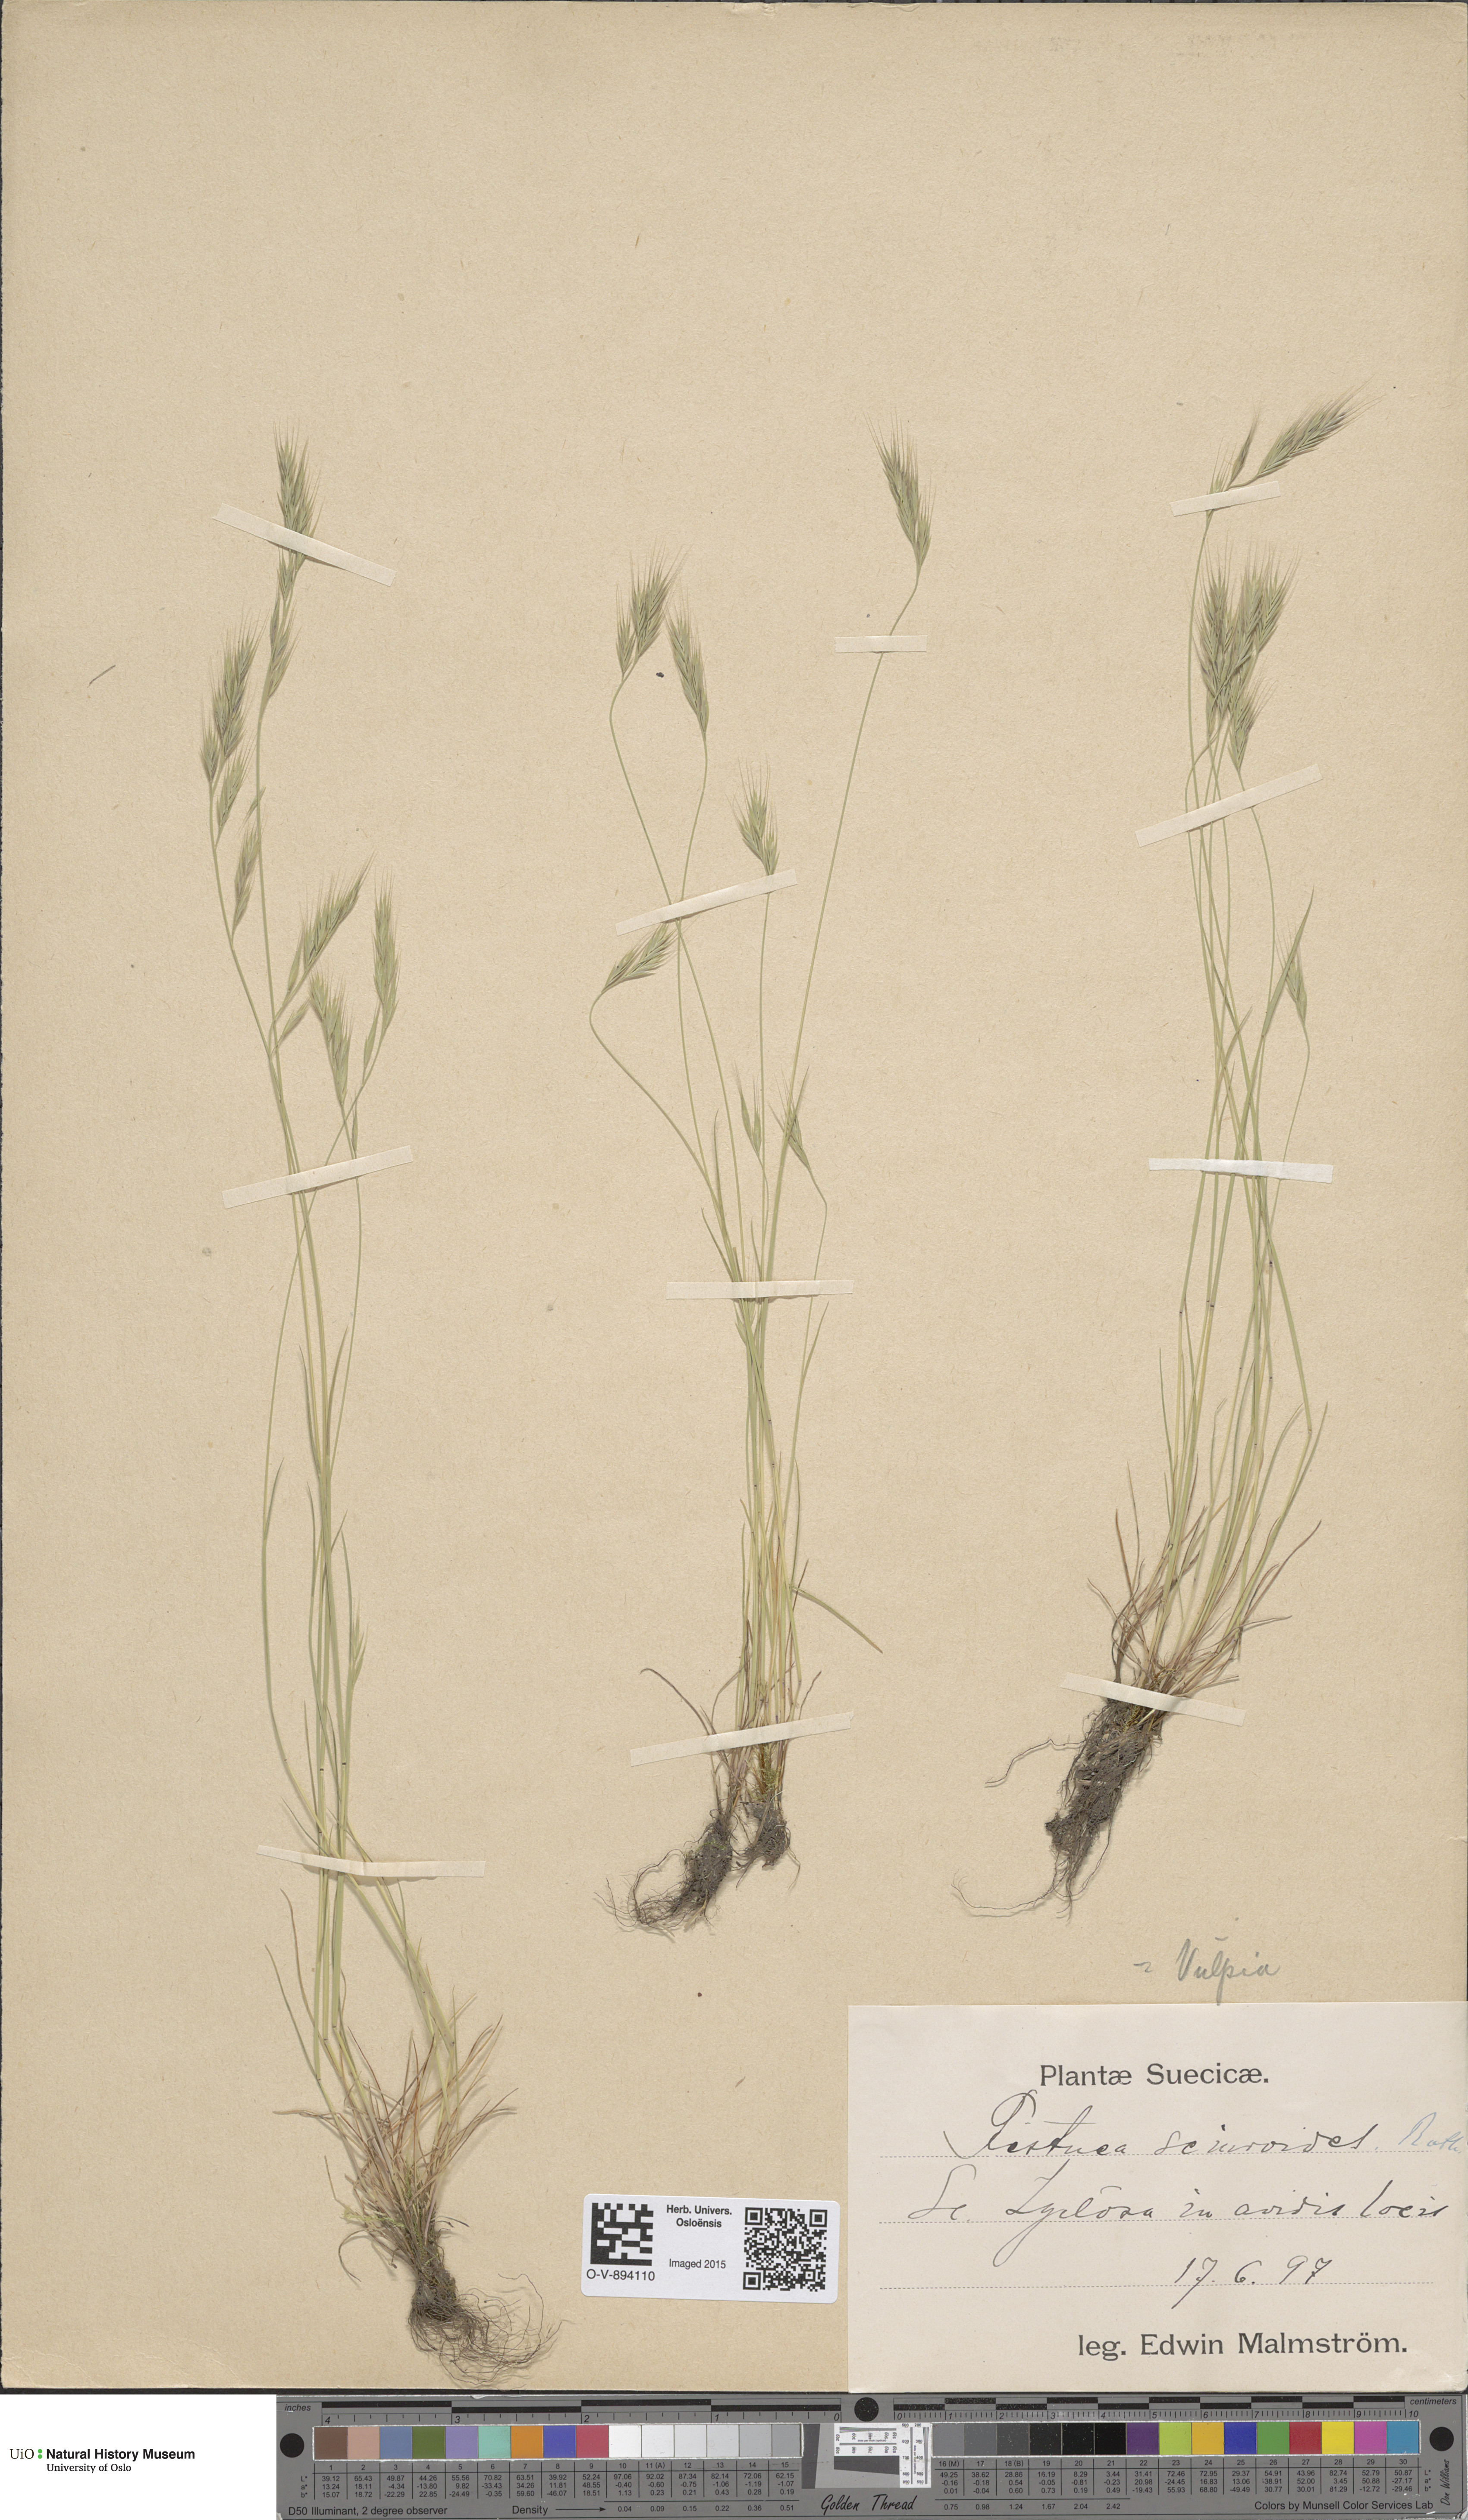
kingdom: Plantae
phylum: Tracheophyta
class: Liliopsida
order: Poales
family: Poaceae
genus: Festuca
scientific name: Festuca bromoides
